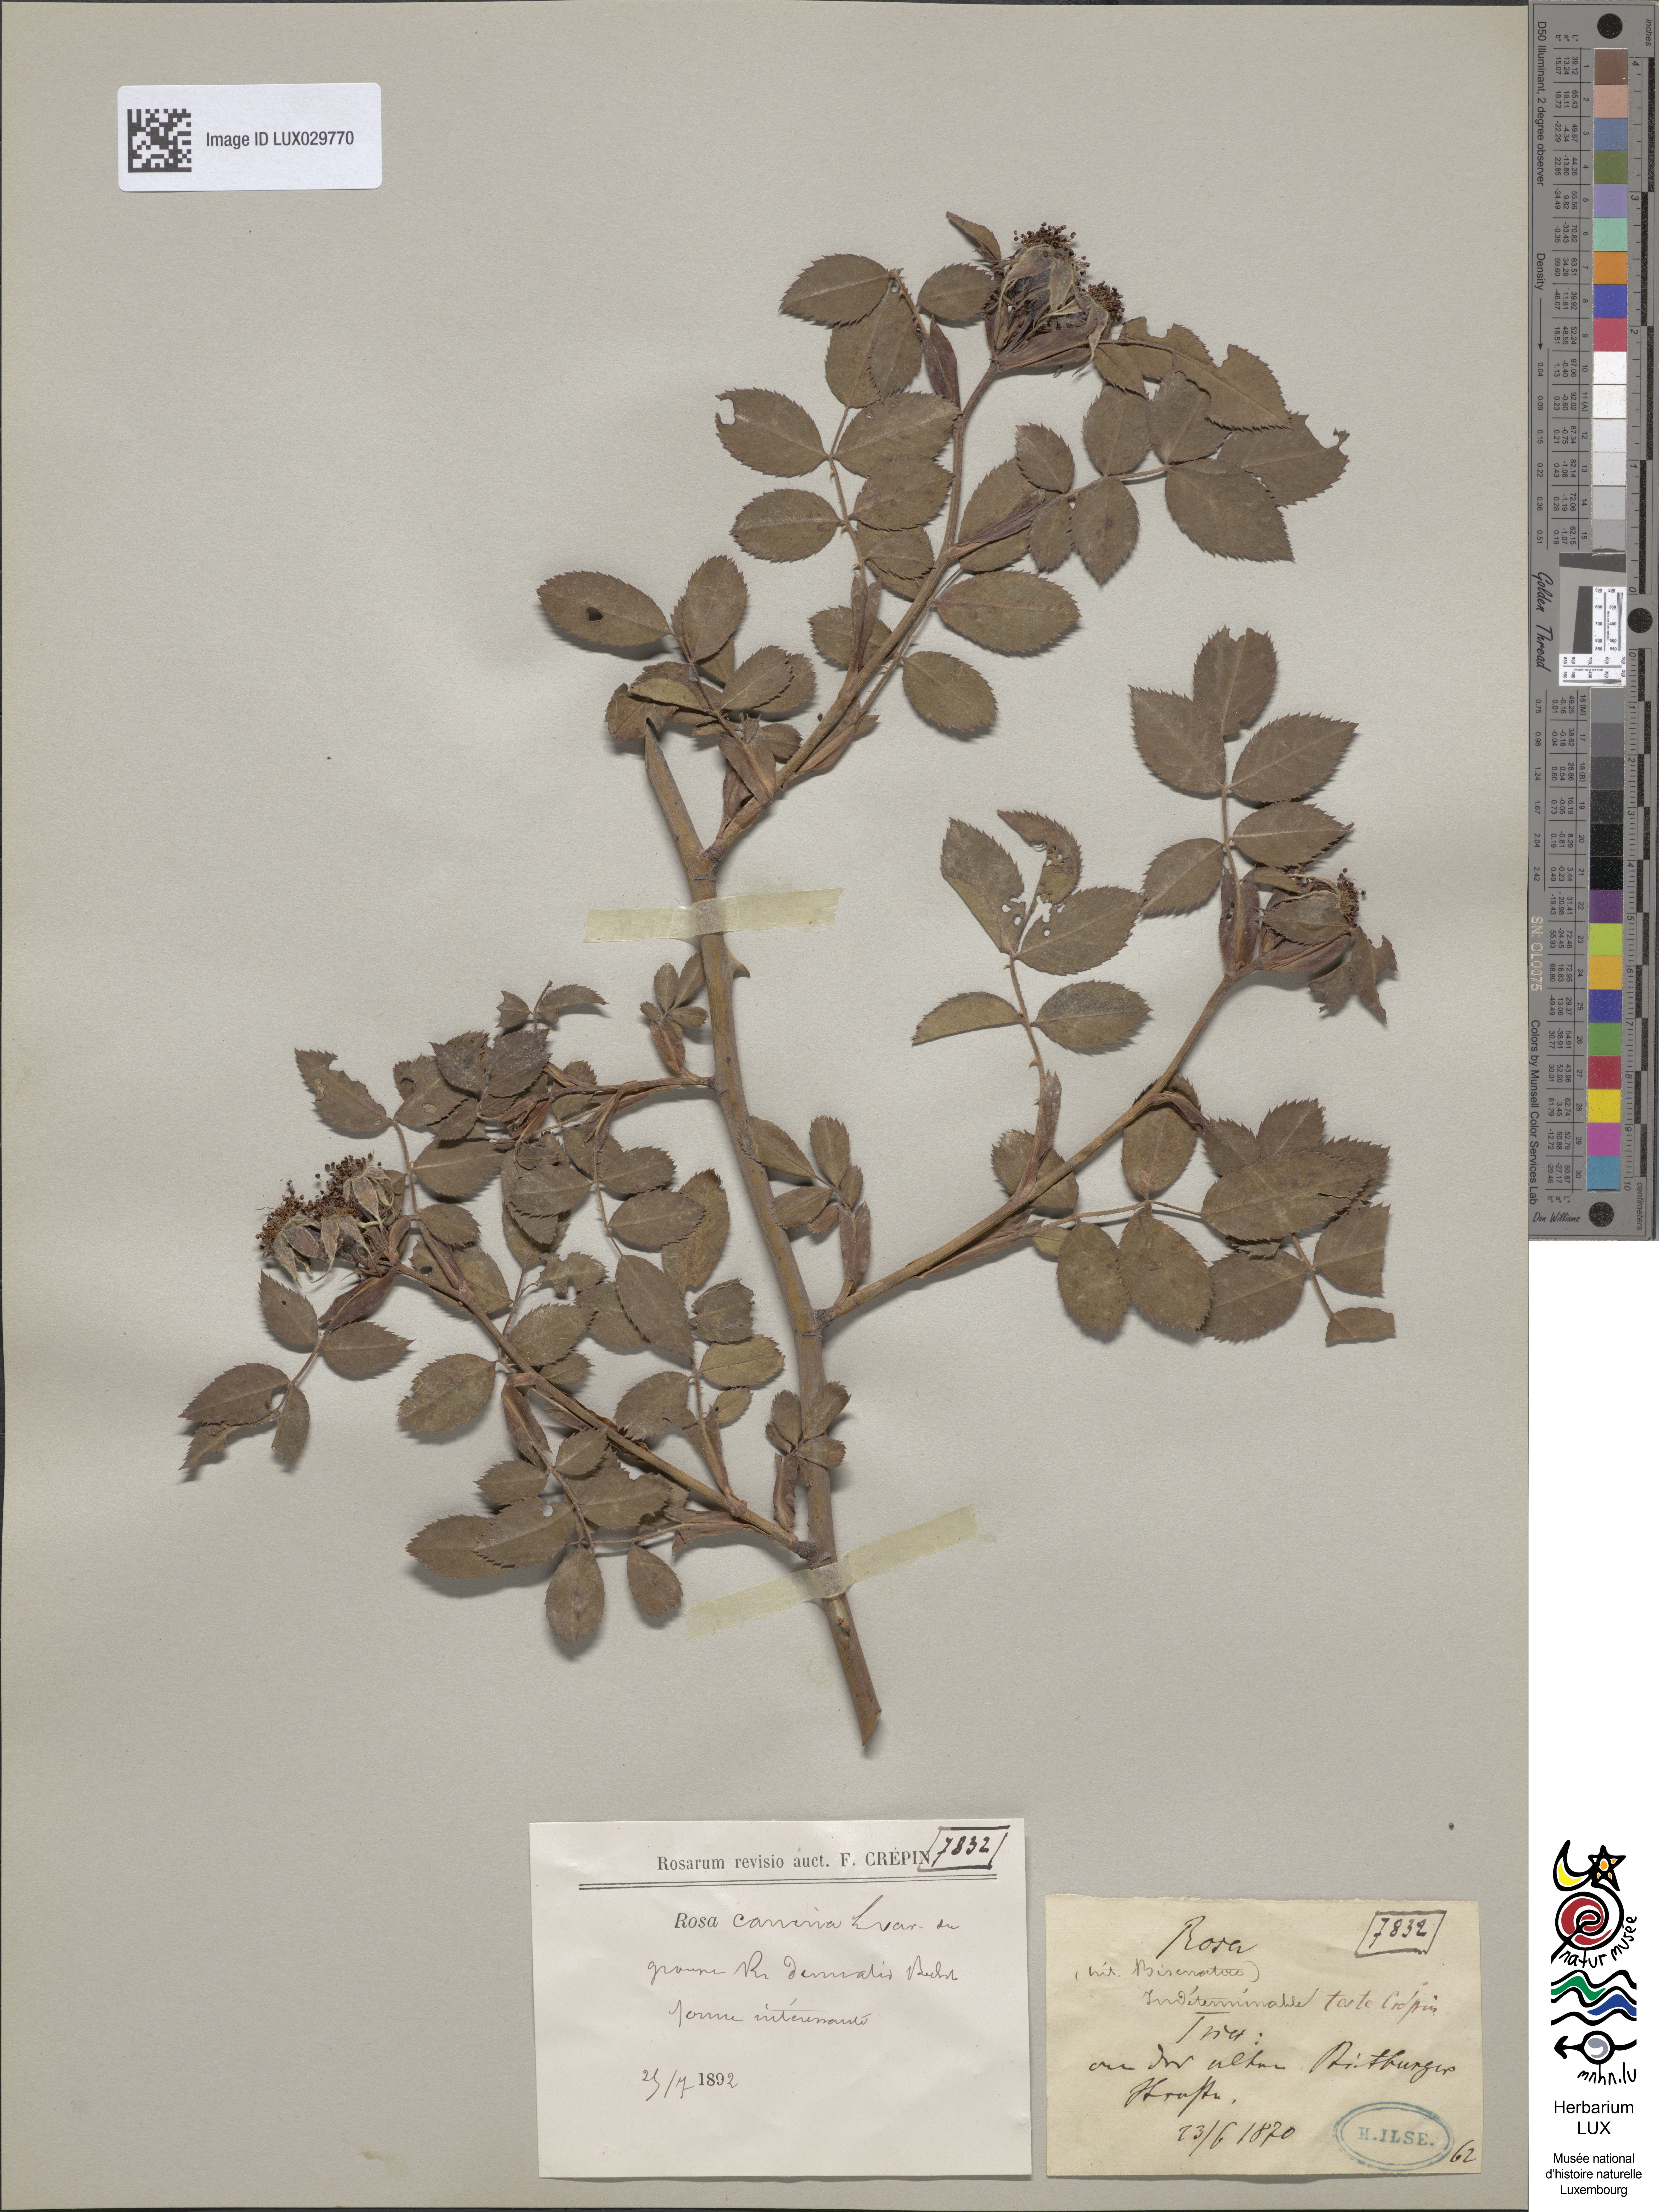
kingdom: Plantae
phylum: Tracheophyta
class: Magnoliopsida
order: Rosales
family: Rosaceae
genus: Rosa
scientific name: Rosa canina
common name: Dog rose
